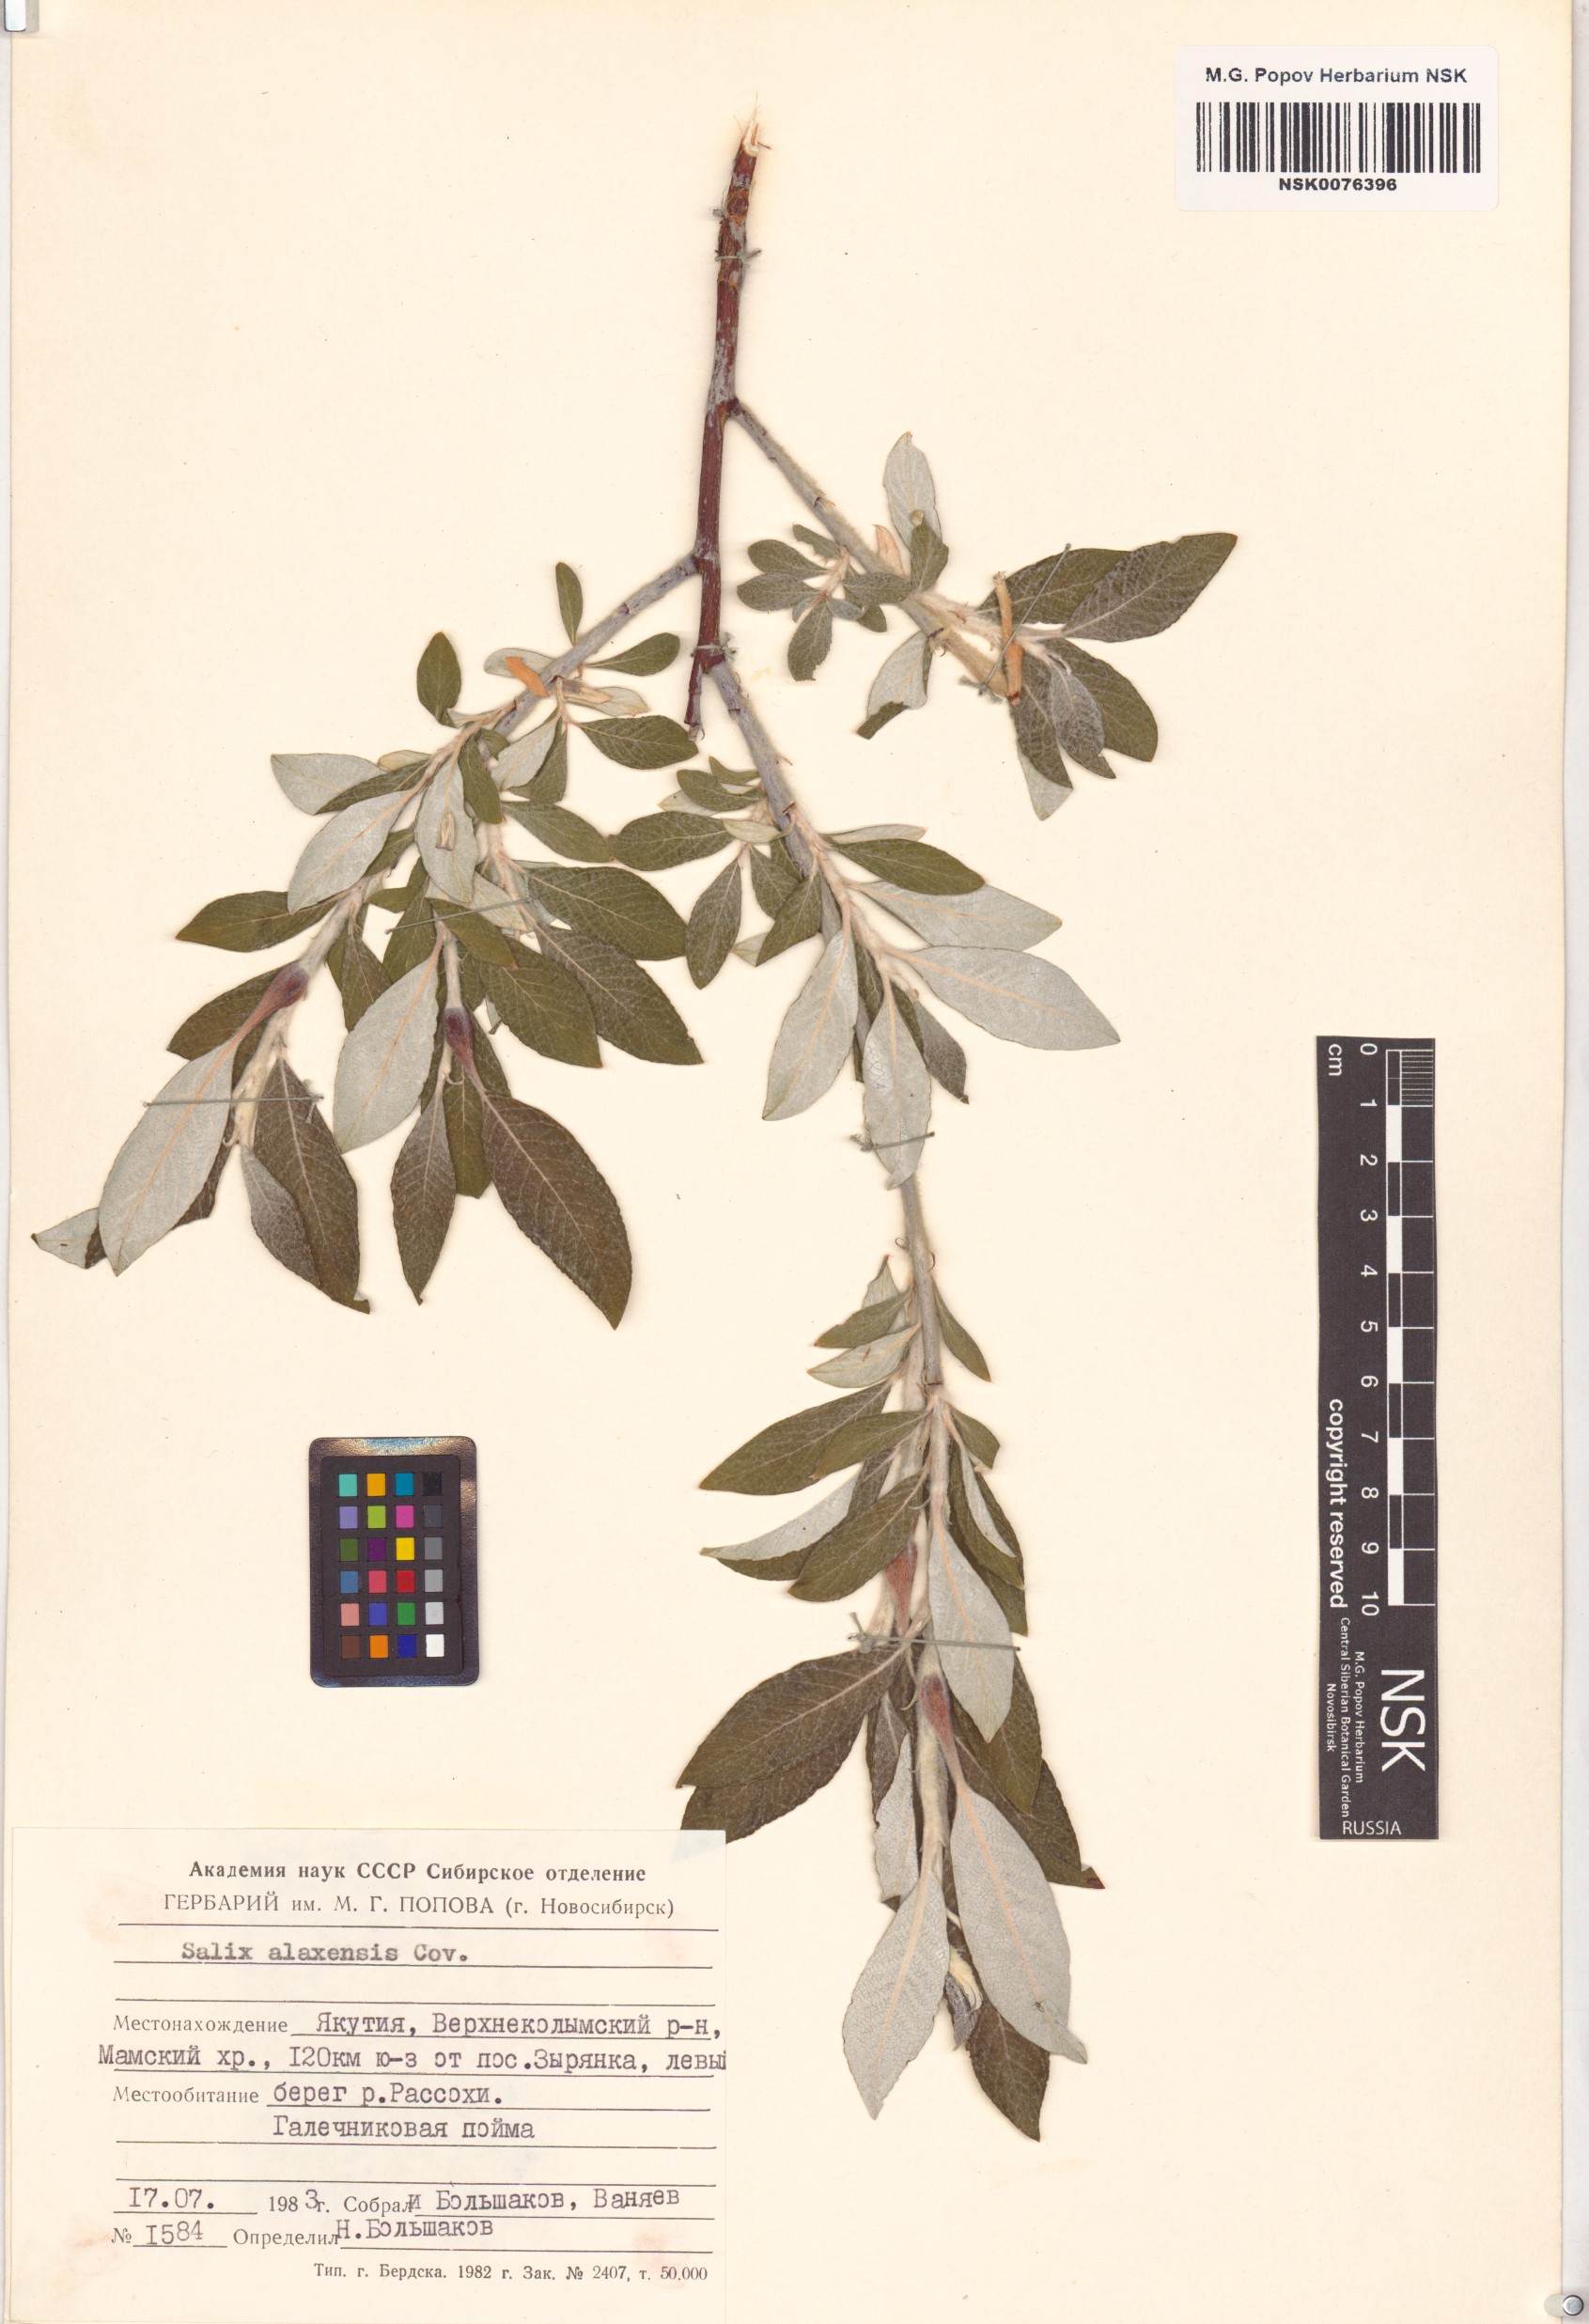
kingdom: Plantae
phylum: Tracheophyta
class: Magnoliopsida
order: Malpighiales
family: Salicaceae
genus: Salix
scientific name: Salix alaxensis
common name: Feltleaf willow
